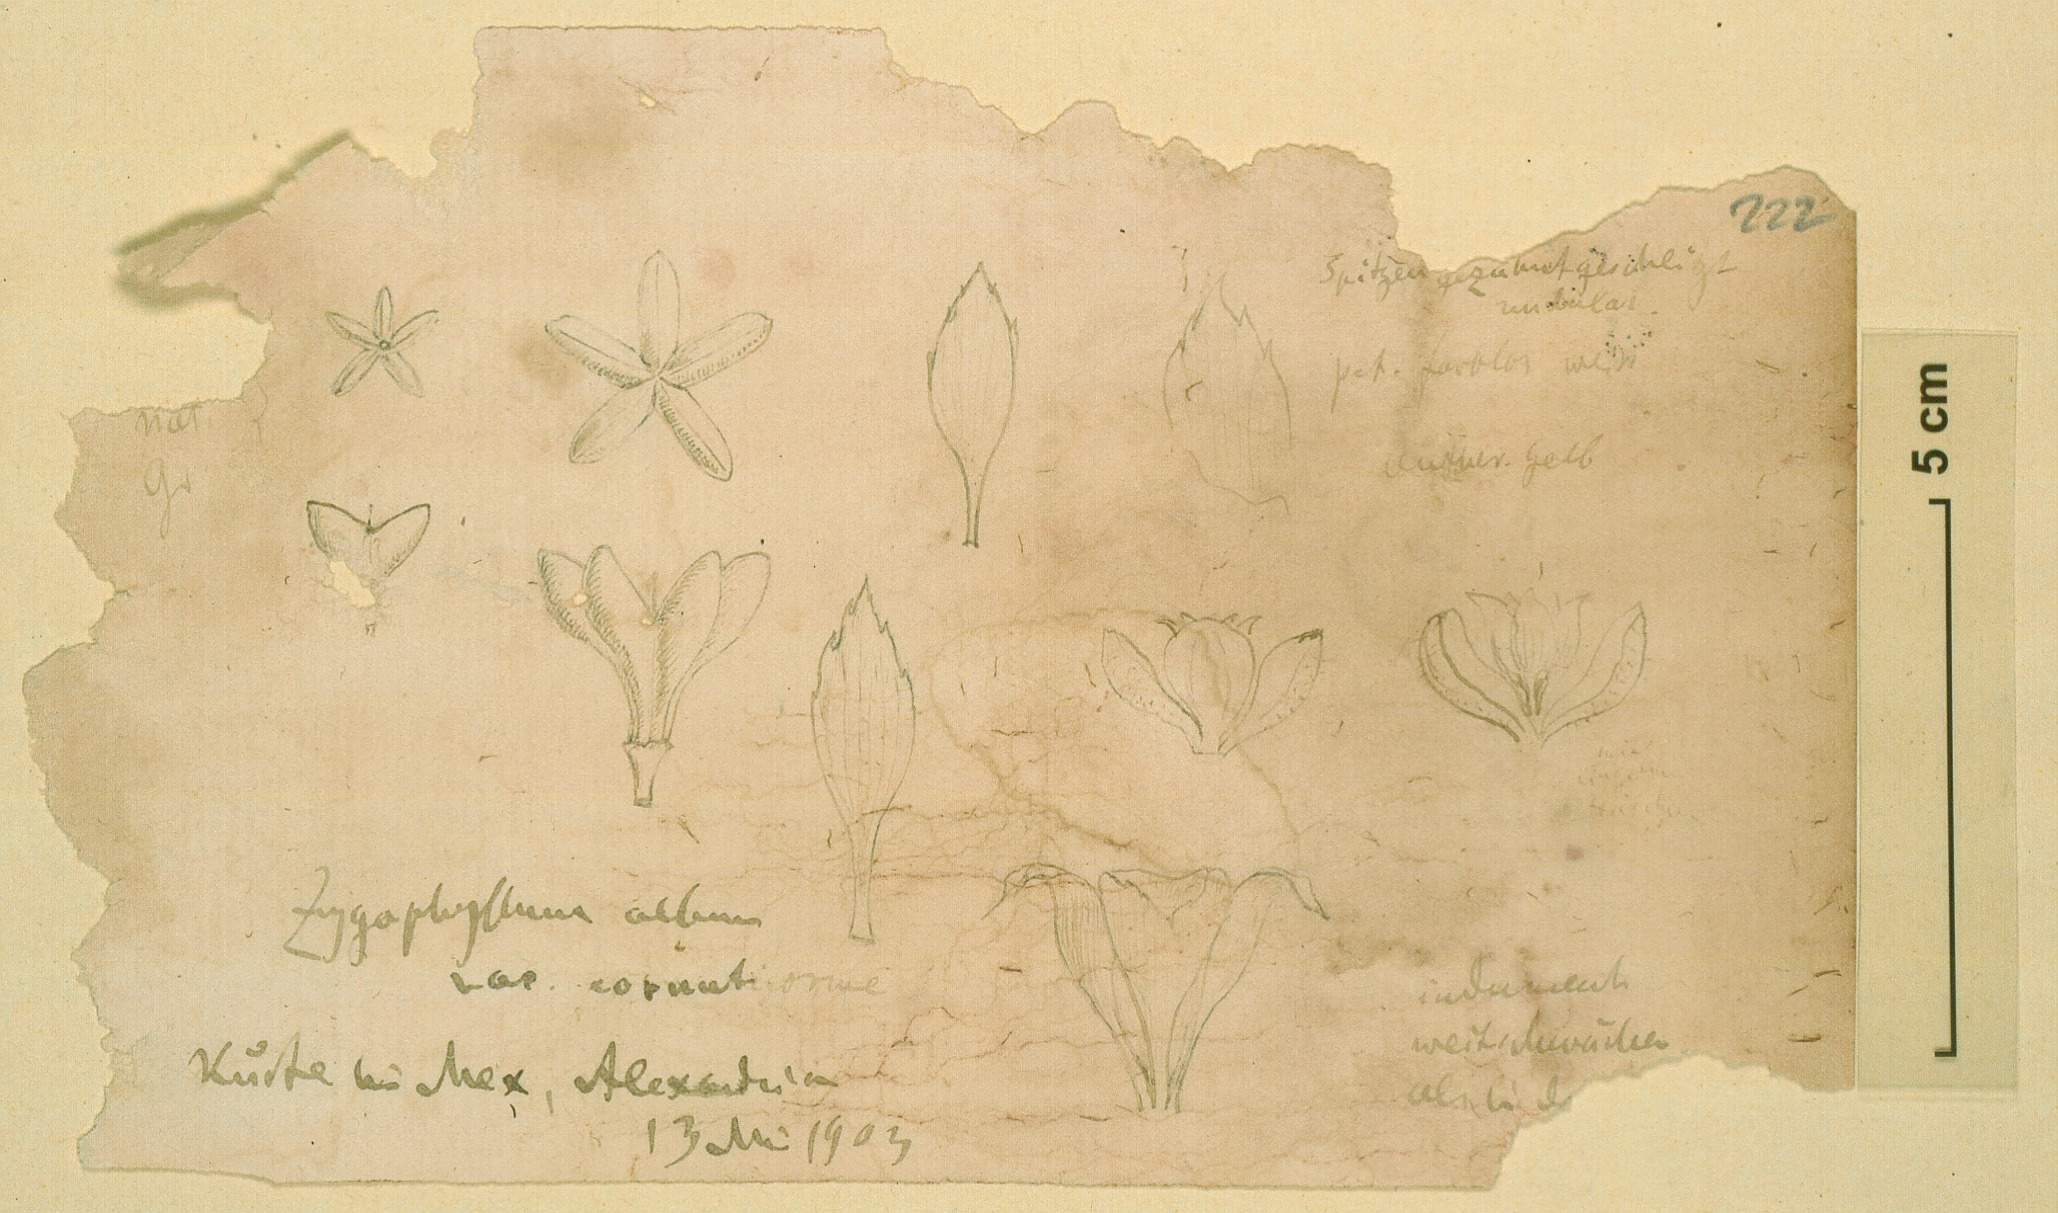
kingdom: Plantae
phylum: Tracheophyta
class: Magnoliopsida
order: Zygophyllales
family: Zygophyllaceae
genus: Tetraena
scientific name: Tetraena alba
